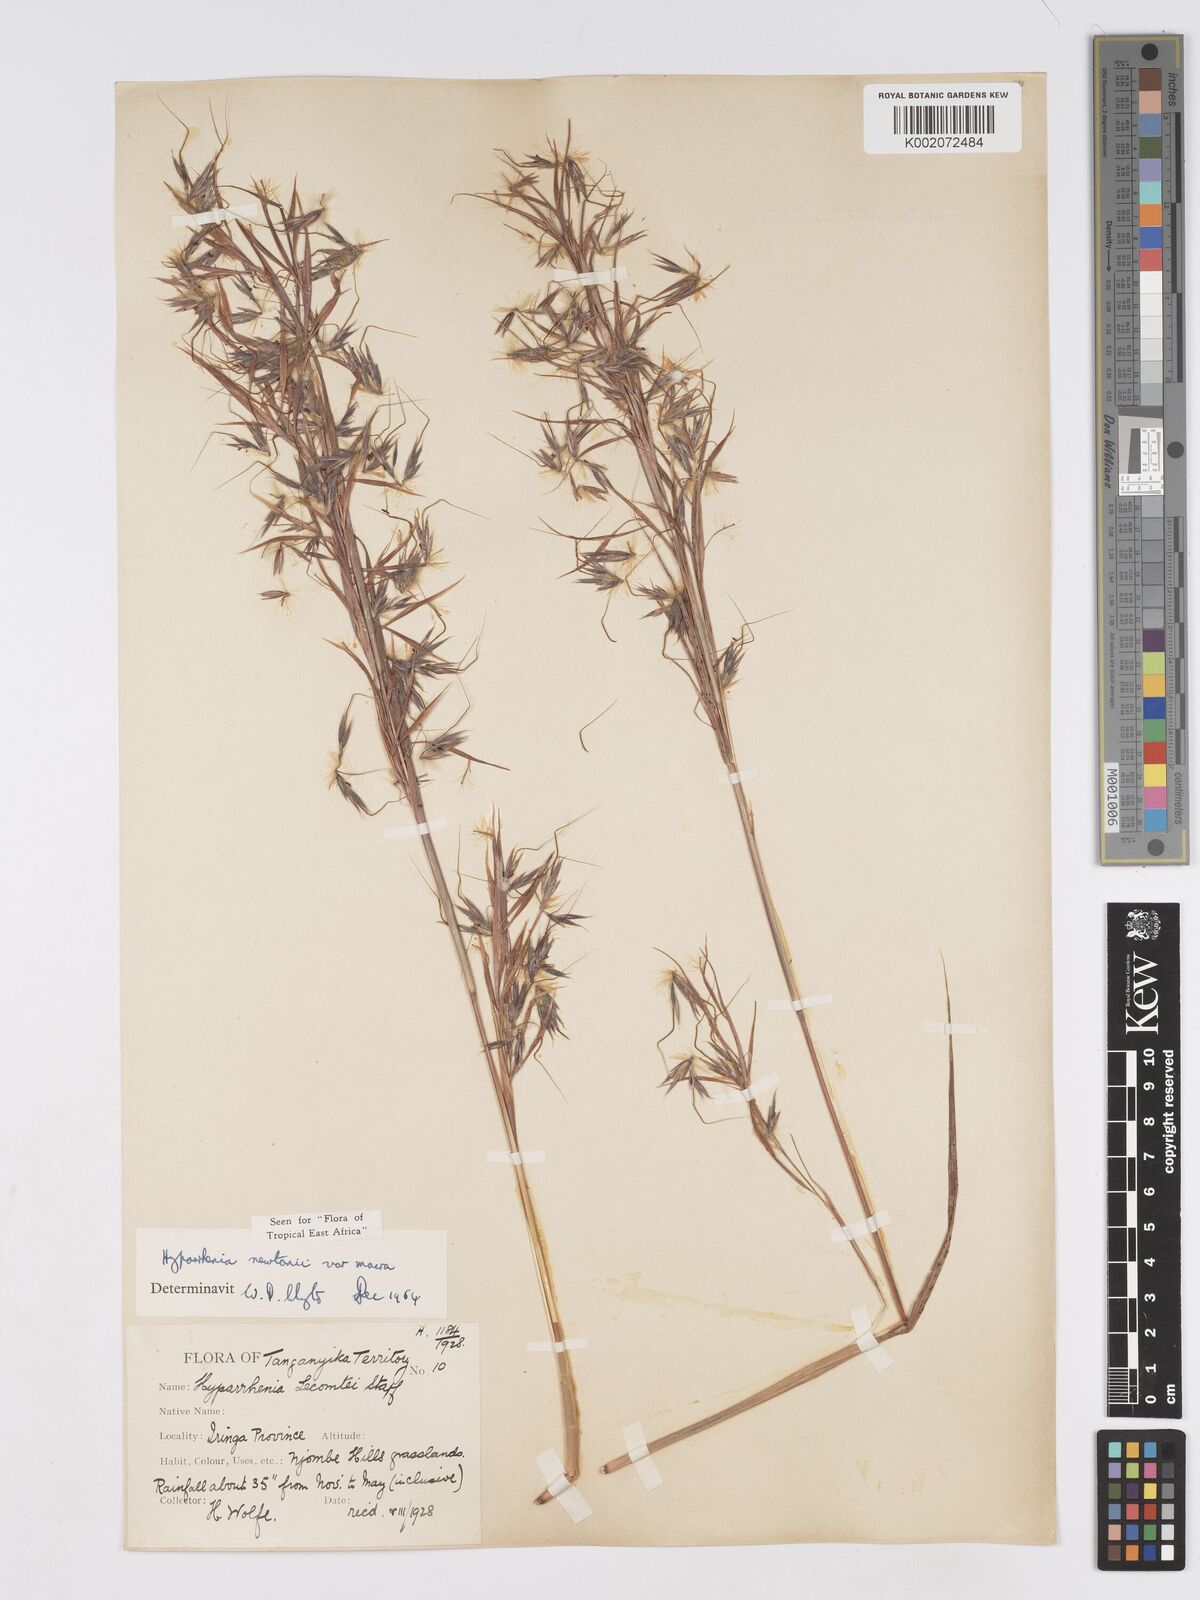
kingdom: Plantae
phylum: Tracheophyta
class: Liliopsida
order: Poales
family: Poaceae
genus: Hyparrhenia
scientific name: Hyparrhenia newtonii
